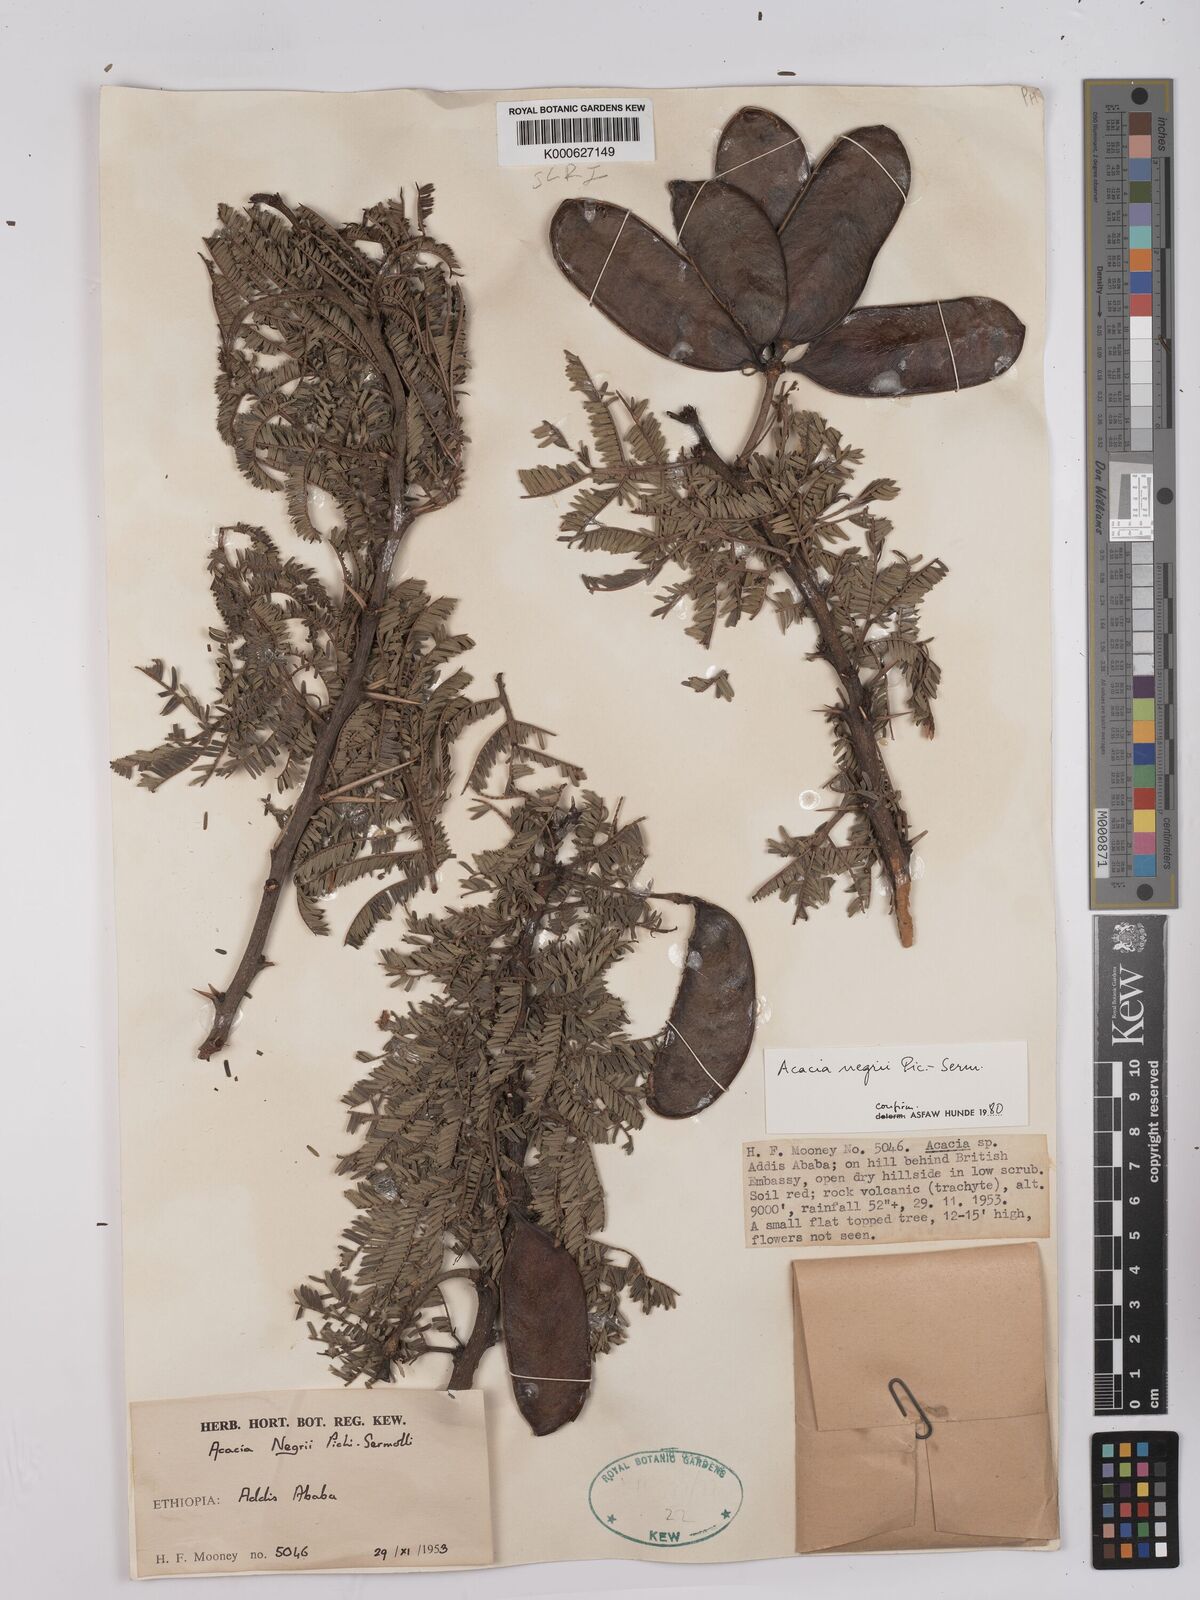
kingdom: Plantae
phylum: Tracheophyta
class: Magnoliopsida
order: Fabales
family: Fabaceae
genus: Vachellia
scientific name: Vachellia negrii
